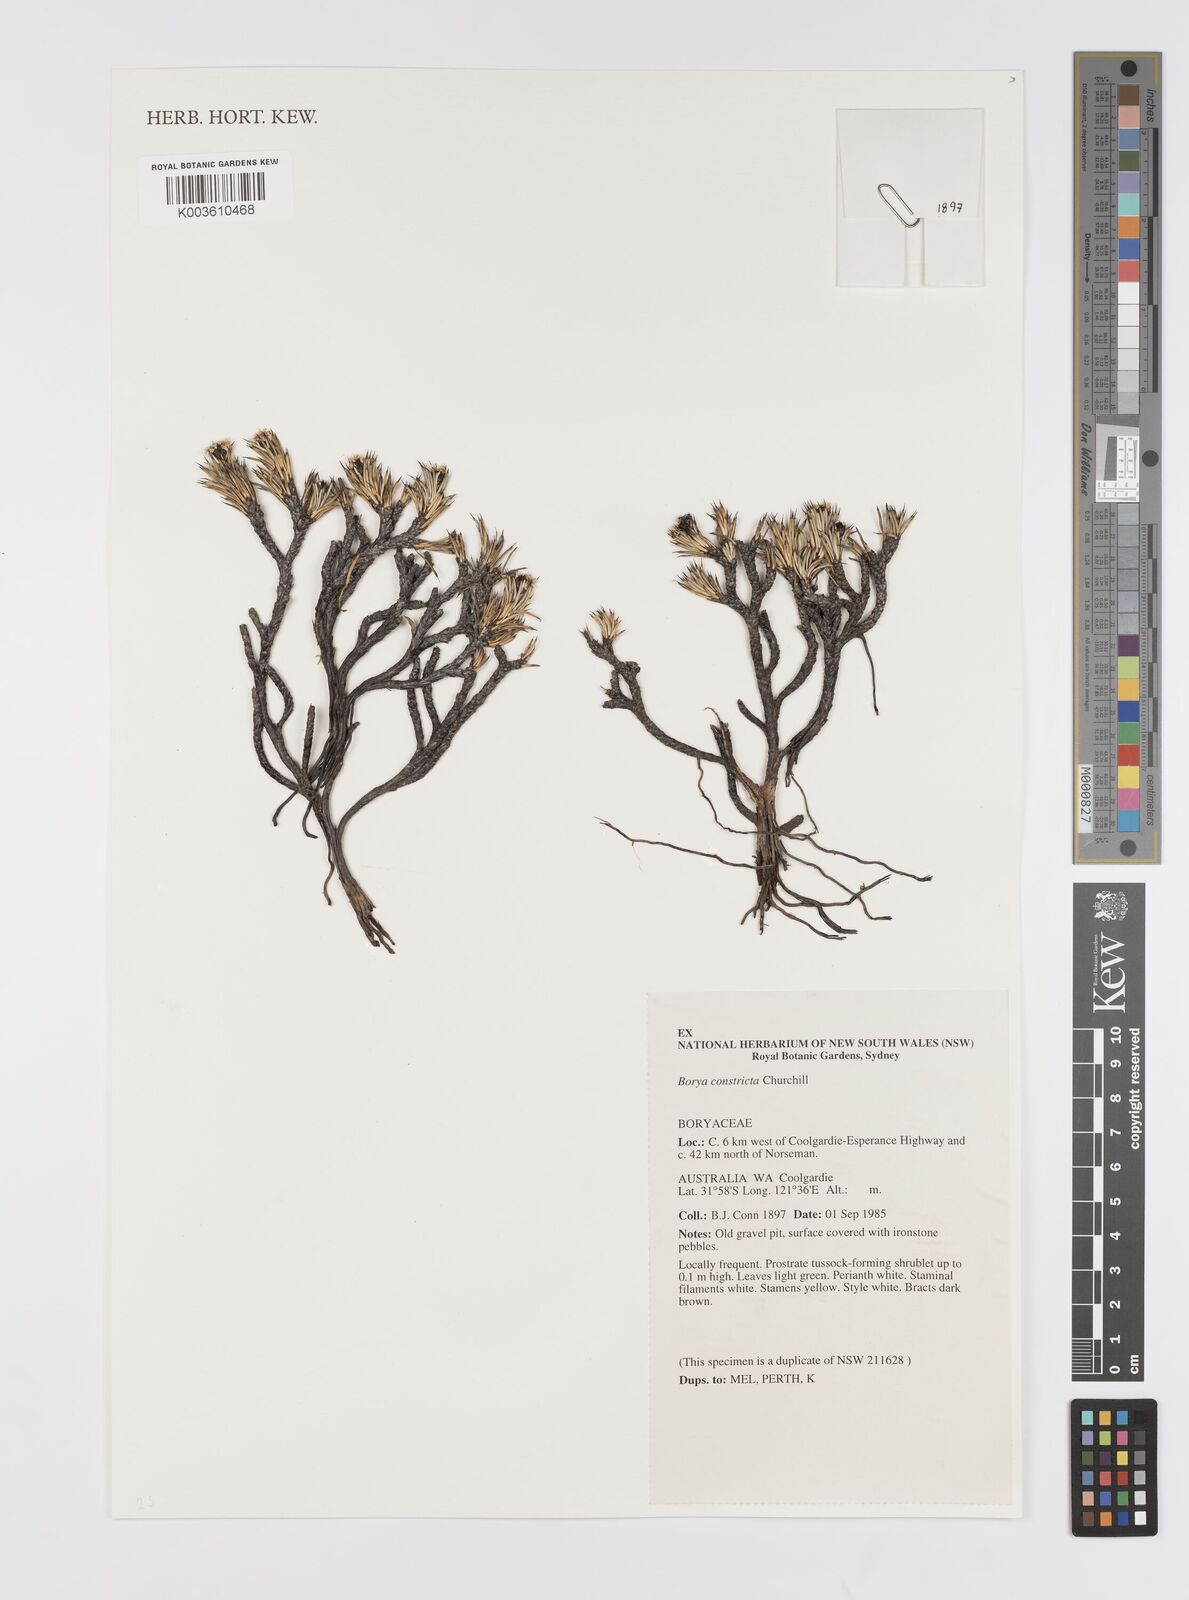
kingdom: Plantae
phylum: Tracheophyta
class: Liliopsida
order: Asparagales
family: Boryaceae
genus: Borya
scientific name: Borya constricta
